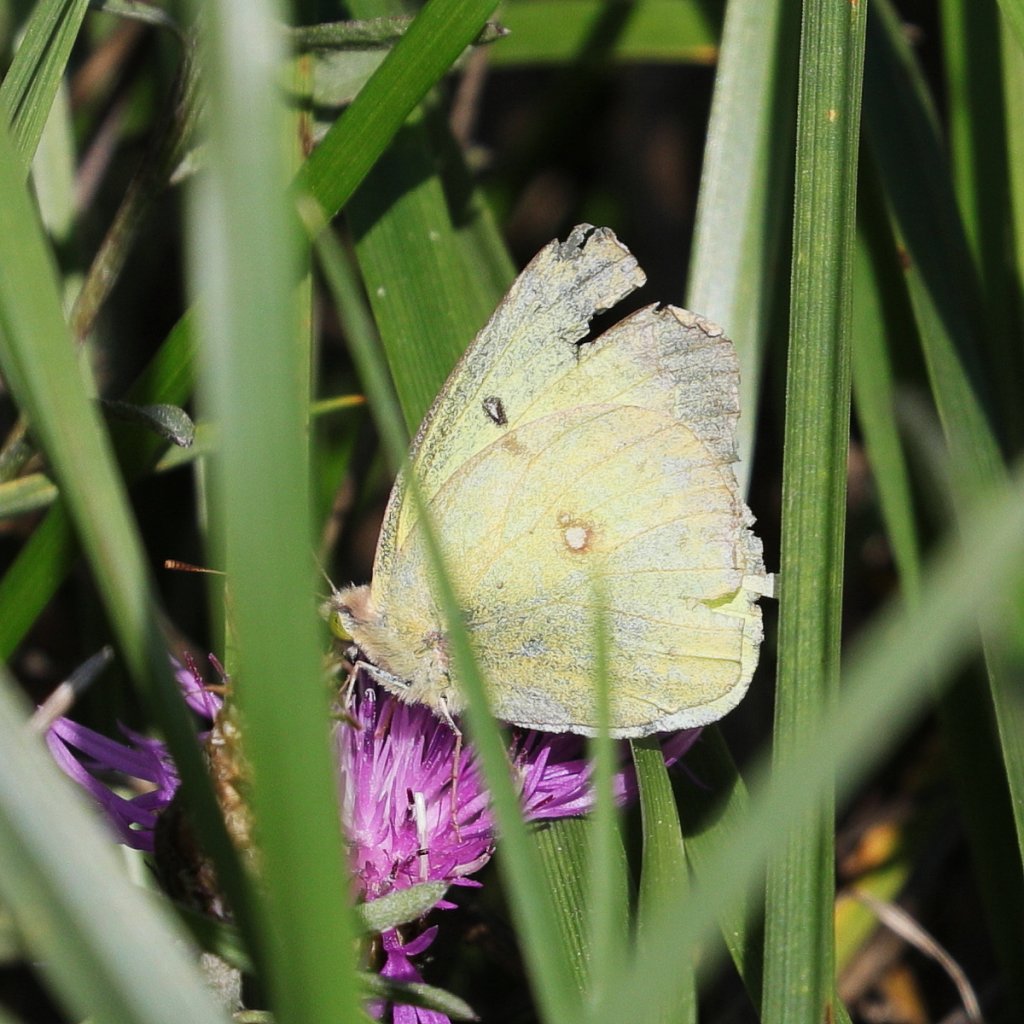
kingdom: Animalia
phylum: Arthropoda
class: Insecta
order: Lepidoptera
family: Pieridae
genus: Colias
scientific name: Colias philodice
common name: Clouded Sulphur
